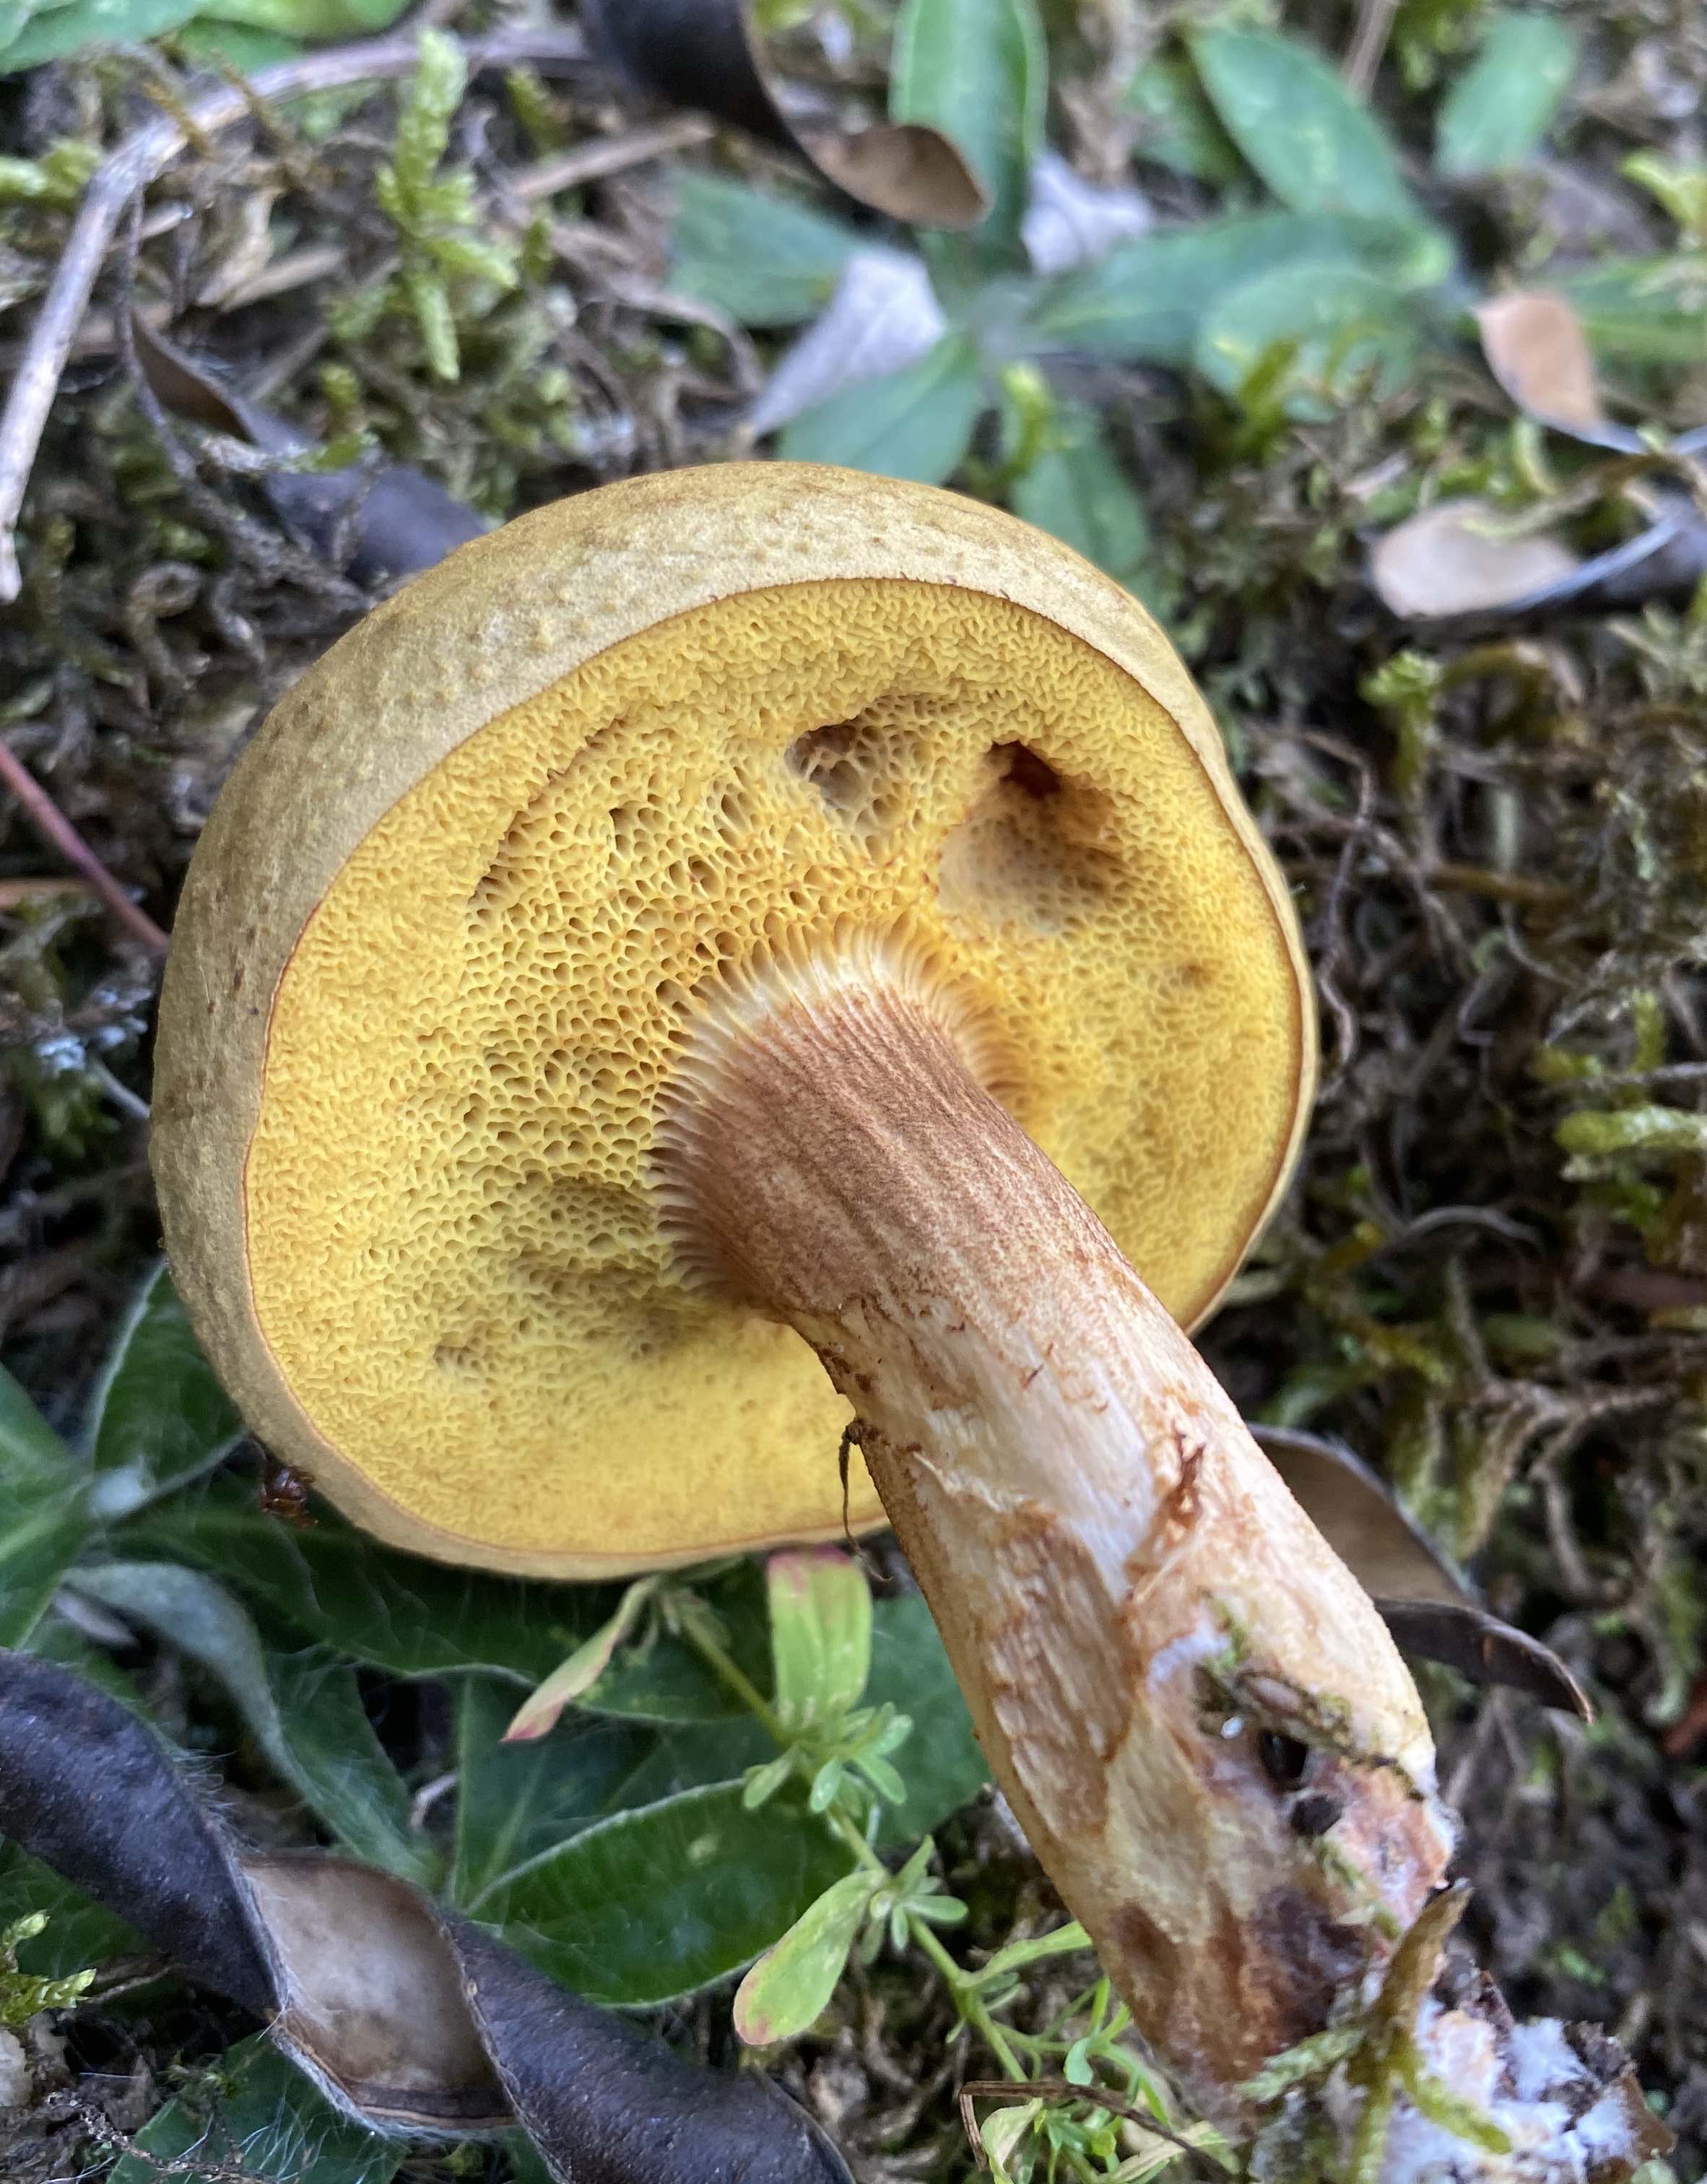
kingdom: Fungi
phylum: Basidiomycota
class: Agaricomycetes
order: Boletales
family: Boletaceae
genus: Xerocomus
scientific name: Xerocomus
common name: filtrørhat
